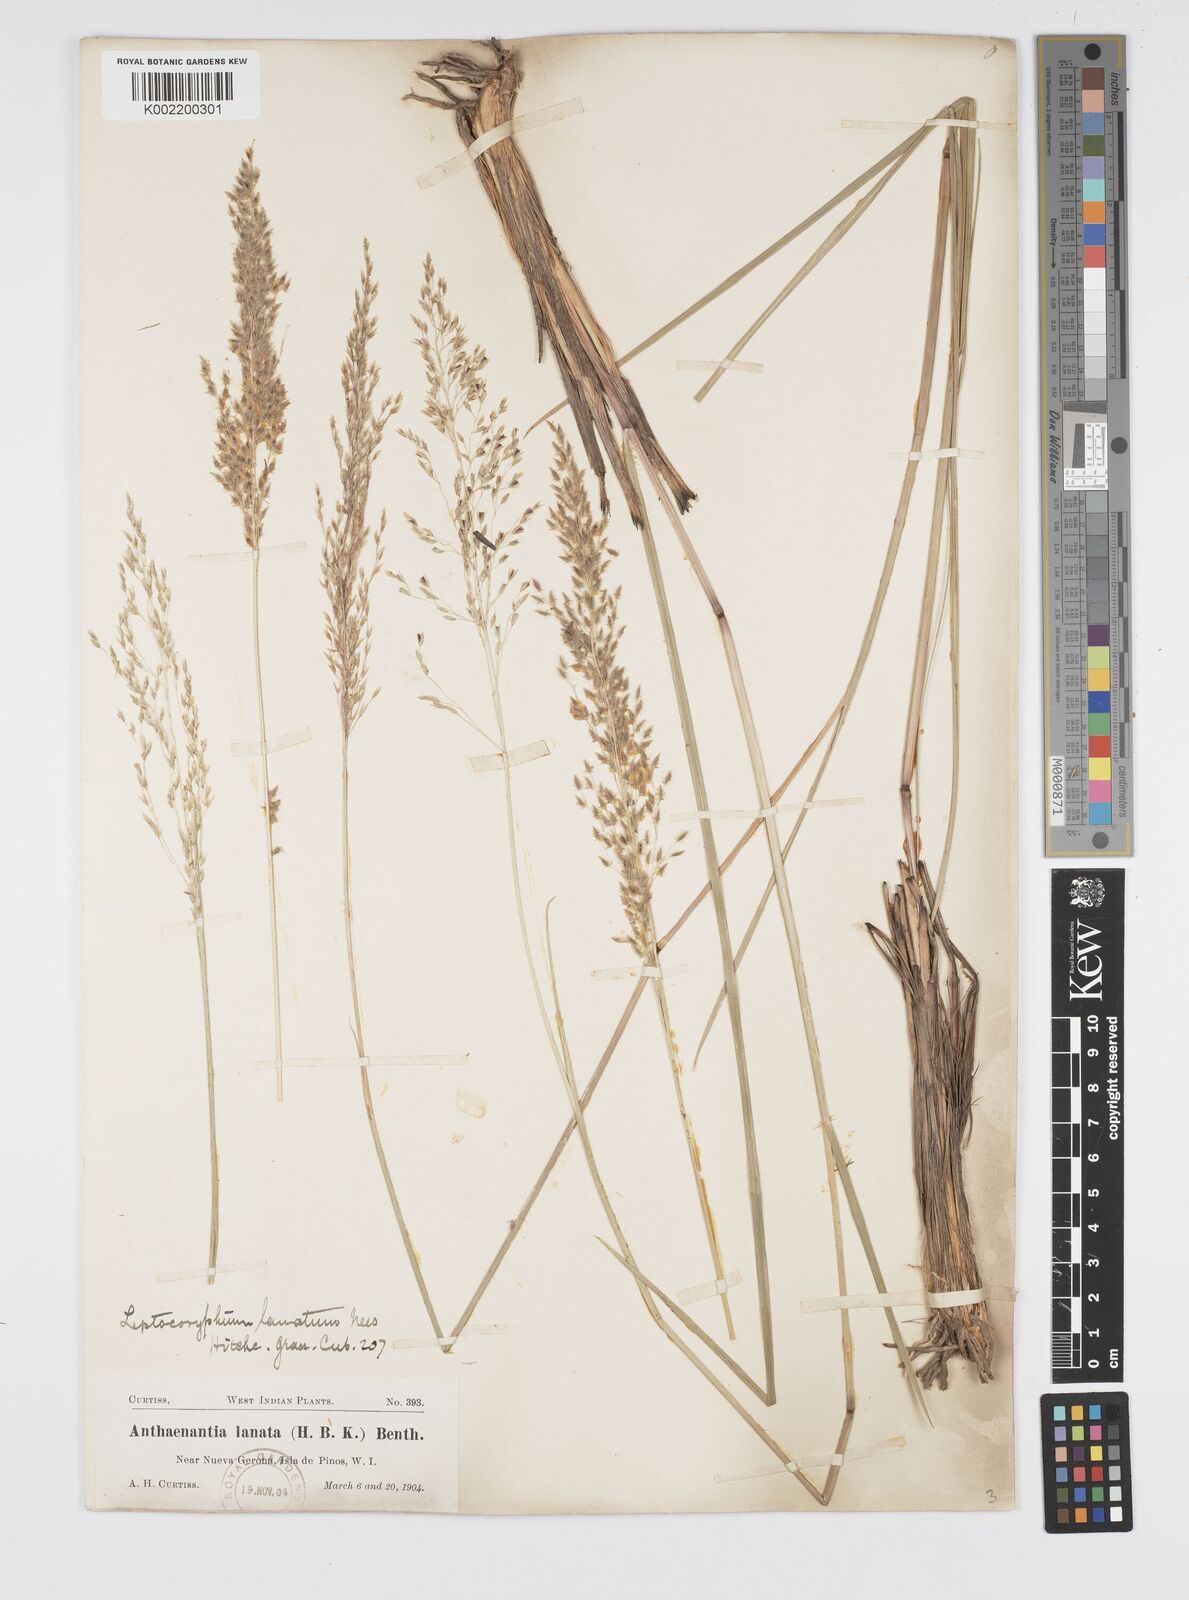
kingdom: Plantae
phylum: Tracheophyta
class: Liliopsida
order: Poales
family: Poaceae
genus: Anthenantia
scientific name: Anthenantia lanata
